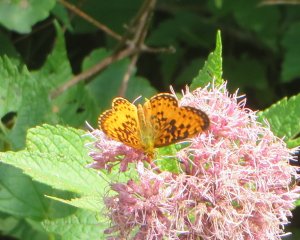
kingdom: Animalia
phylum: Arthropoda
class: Insecta
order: Lepidoptera
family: Nymphalidae
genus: Boloria
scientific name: Boloria selene
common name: Silver-bordered Fritillary
